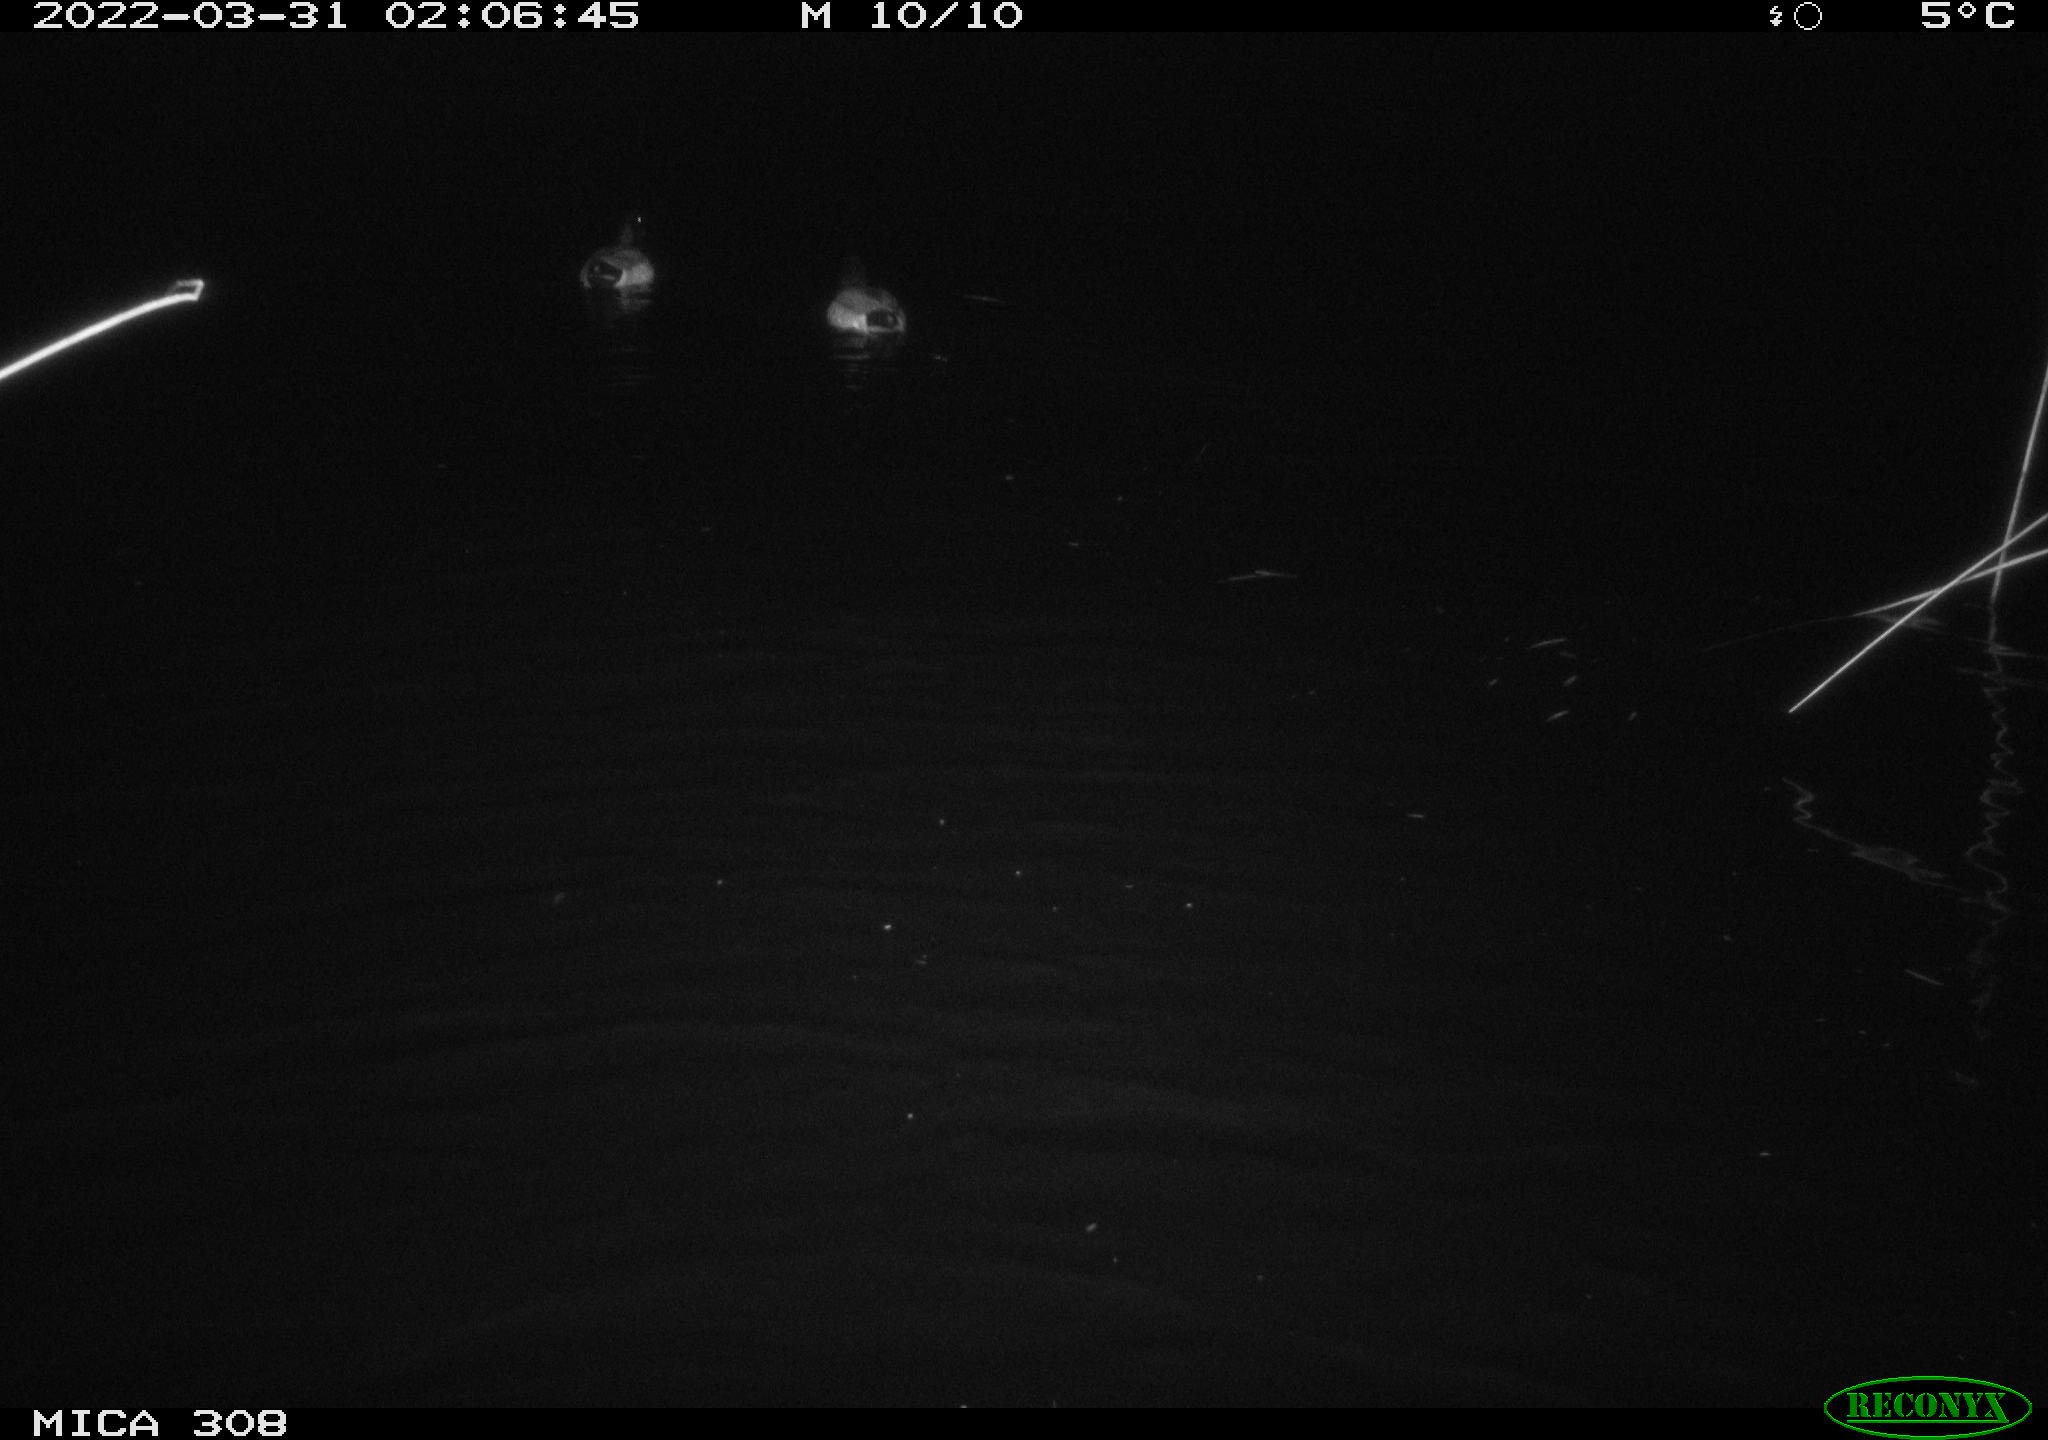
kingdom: Animalia
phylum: Chordata
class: Aves
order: Anseriformes
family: Anatidae
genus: Anas
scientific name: Anas platyrhynchos
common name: Mallard
